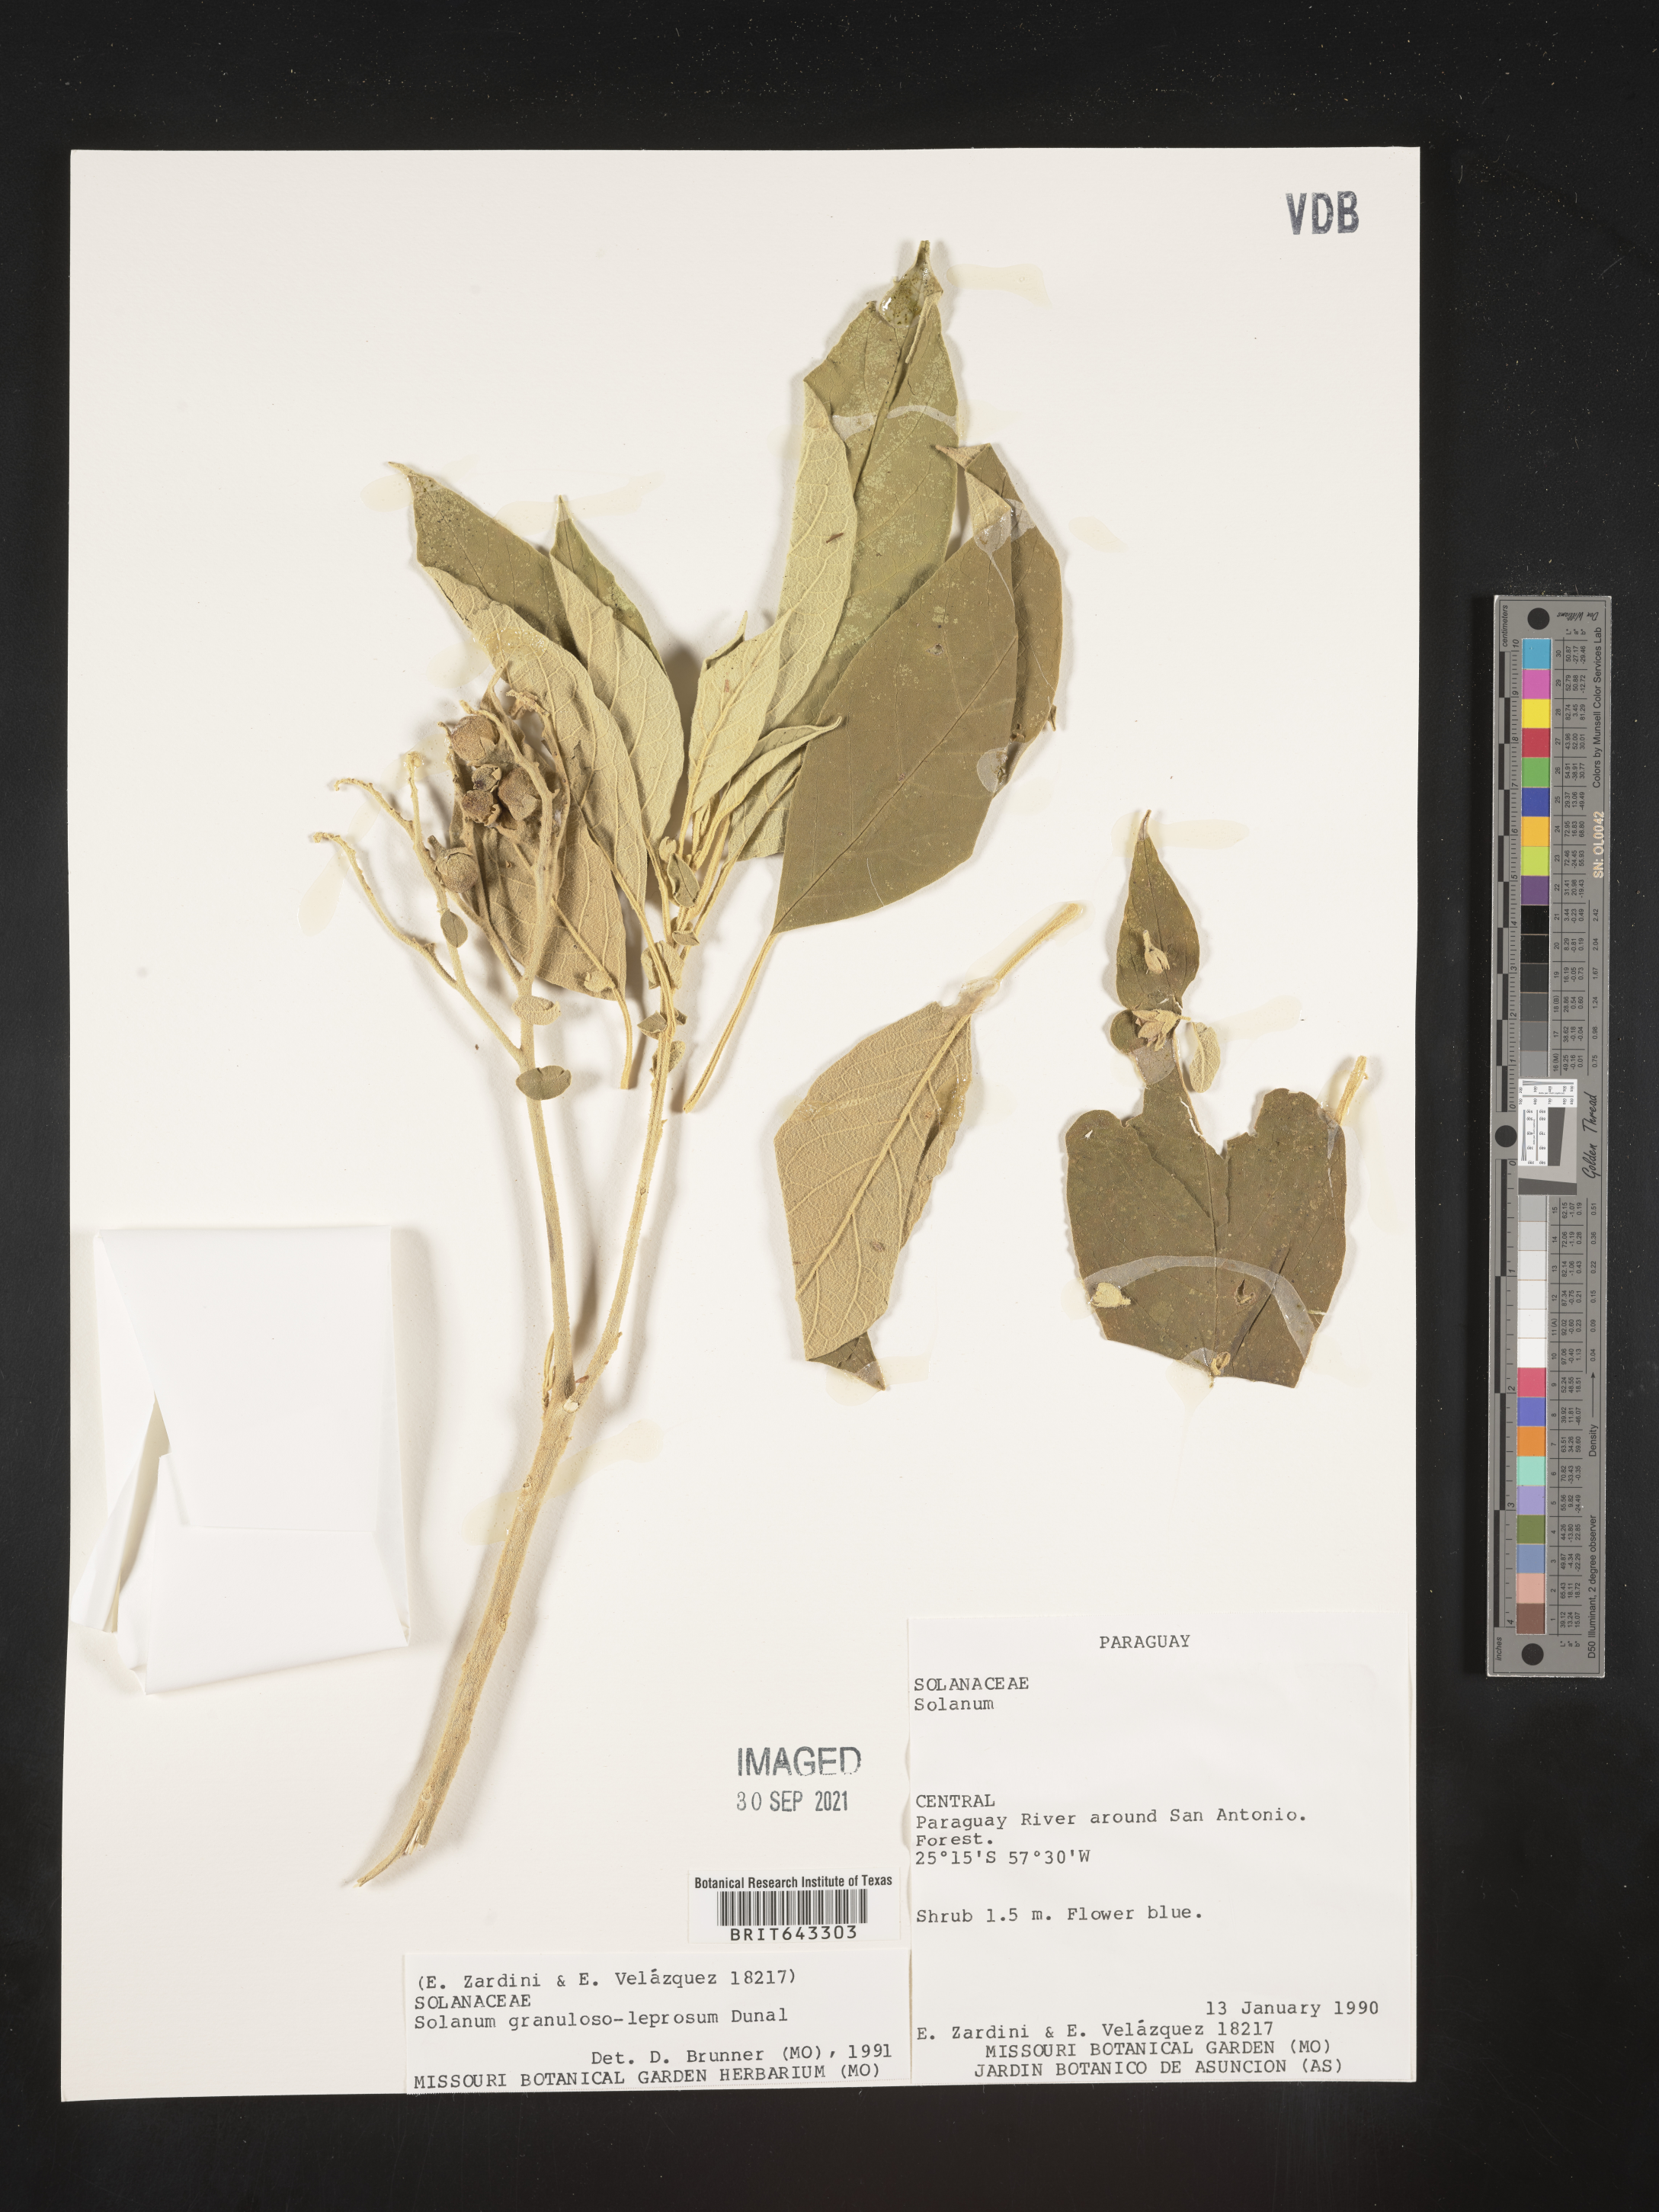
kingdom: Plantae
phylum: Tracheophyta
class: Magnoliopsida
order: Solanales
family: Solanaceae
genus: Solanum
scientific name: Solanum
